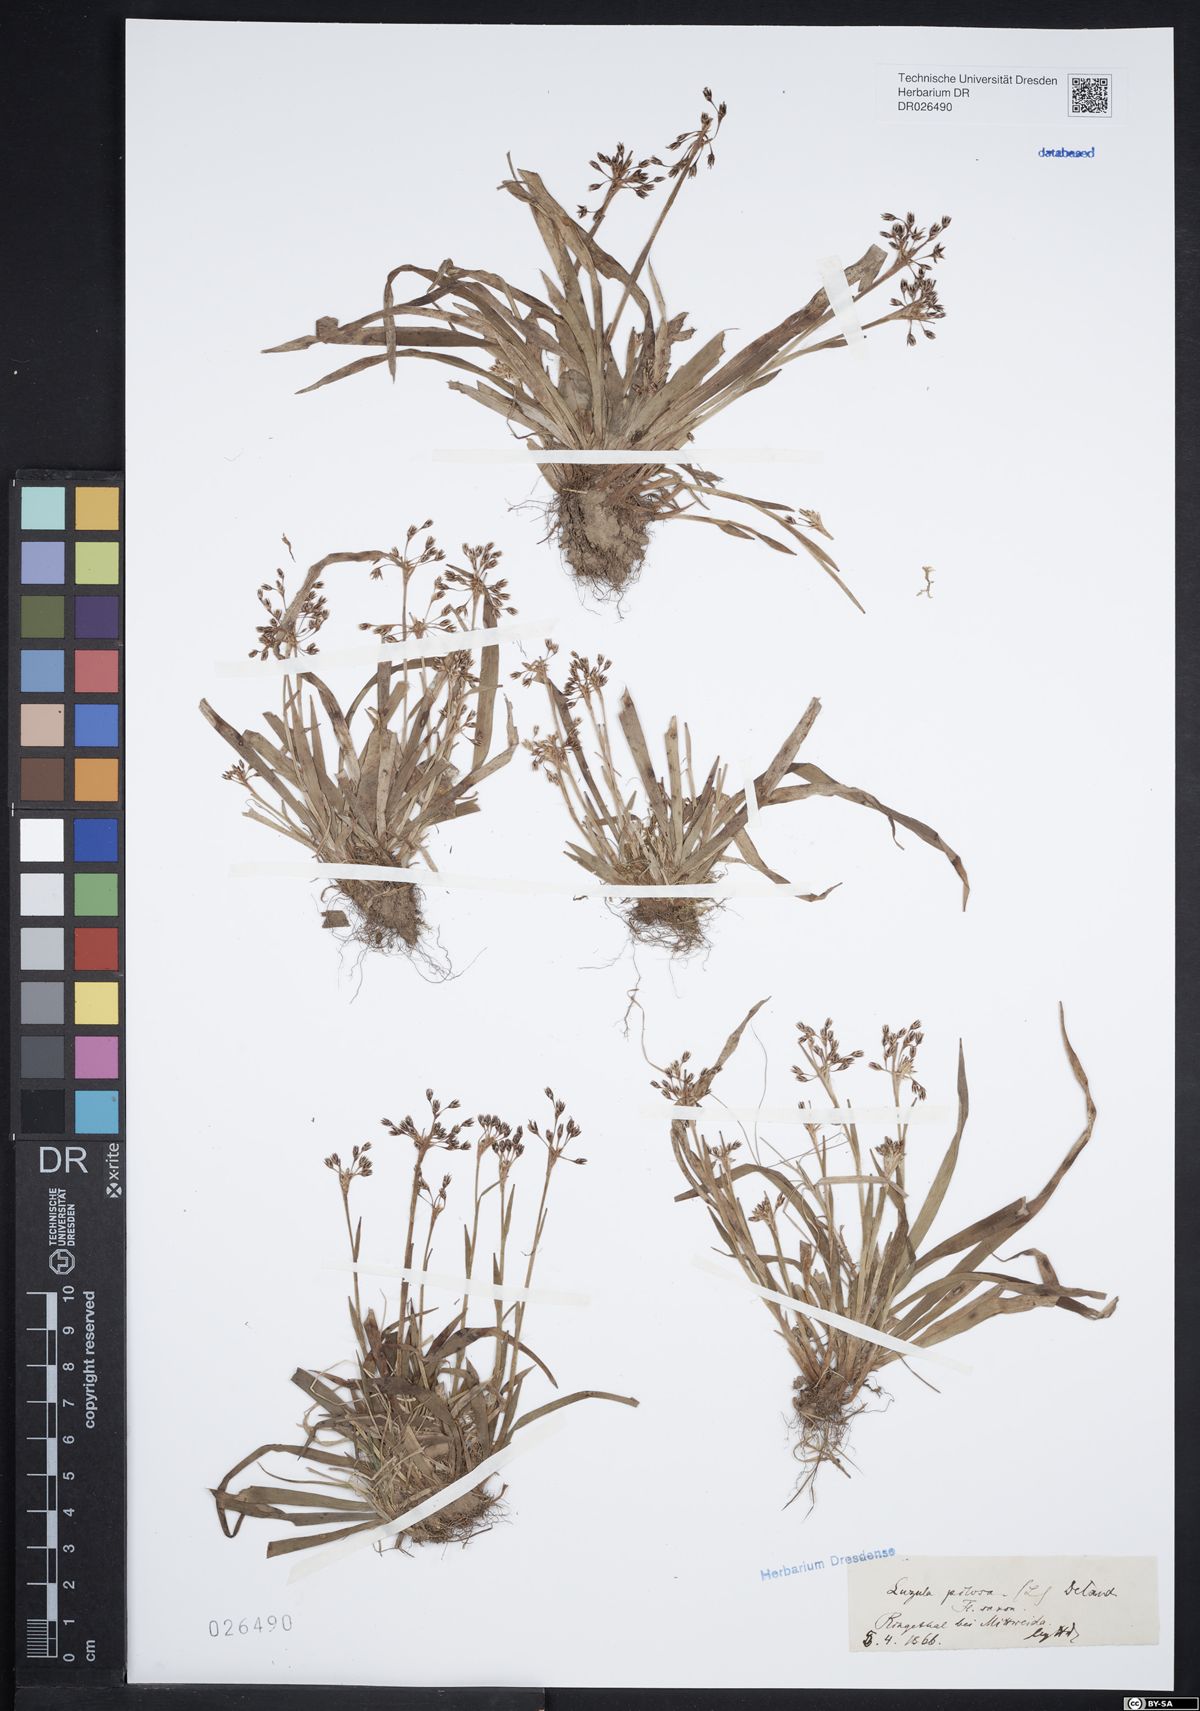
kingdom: Plantae
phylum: Tracheophyta
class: Liliopsida
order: Poales
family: Juncaceae
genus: Luzula
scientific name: Luzula pilosa
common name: Hairy wood-rush
